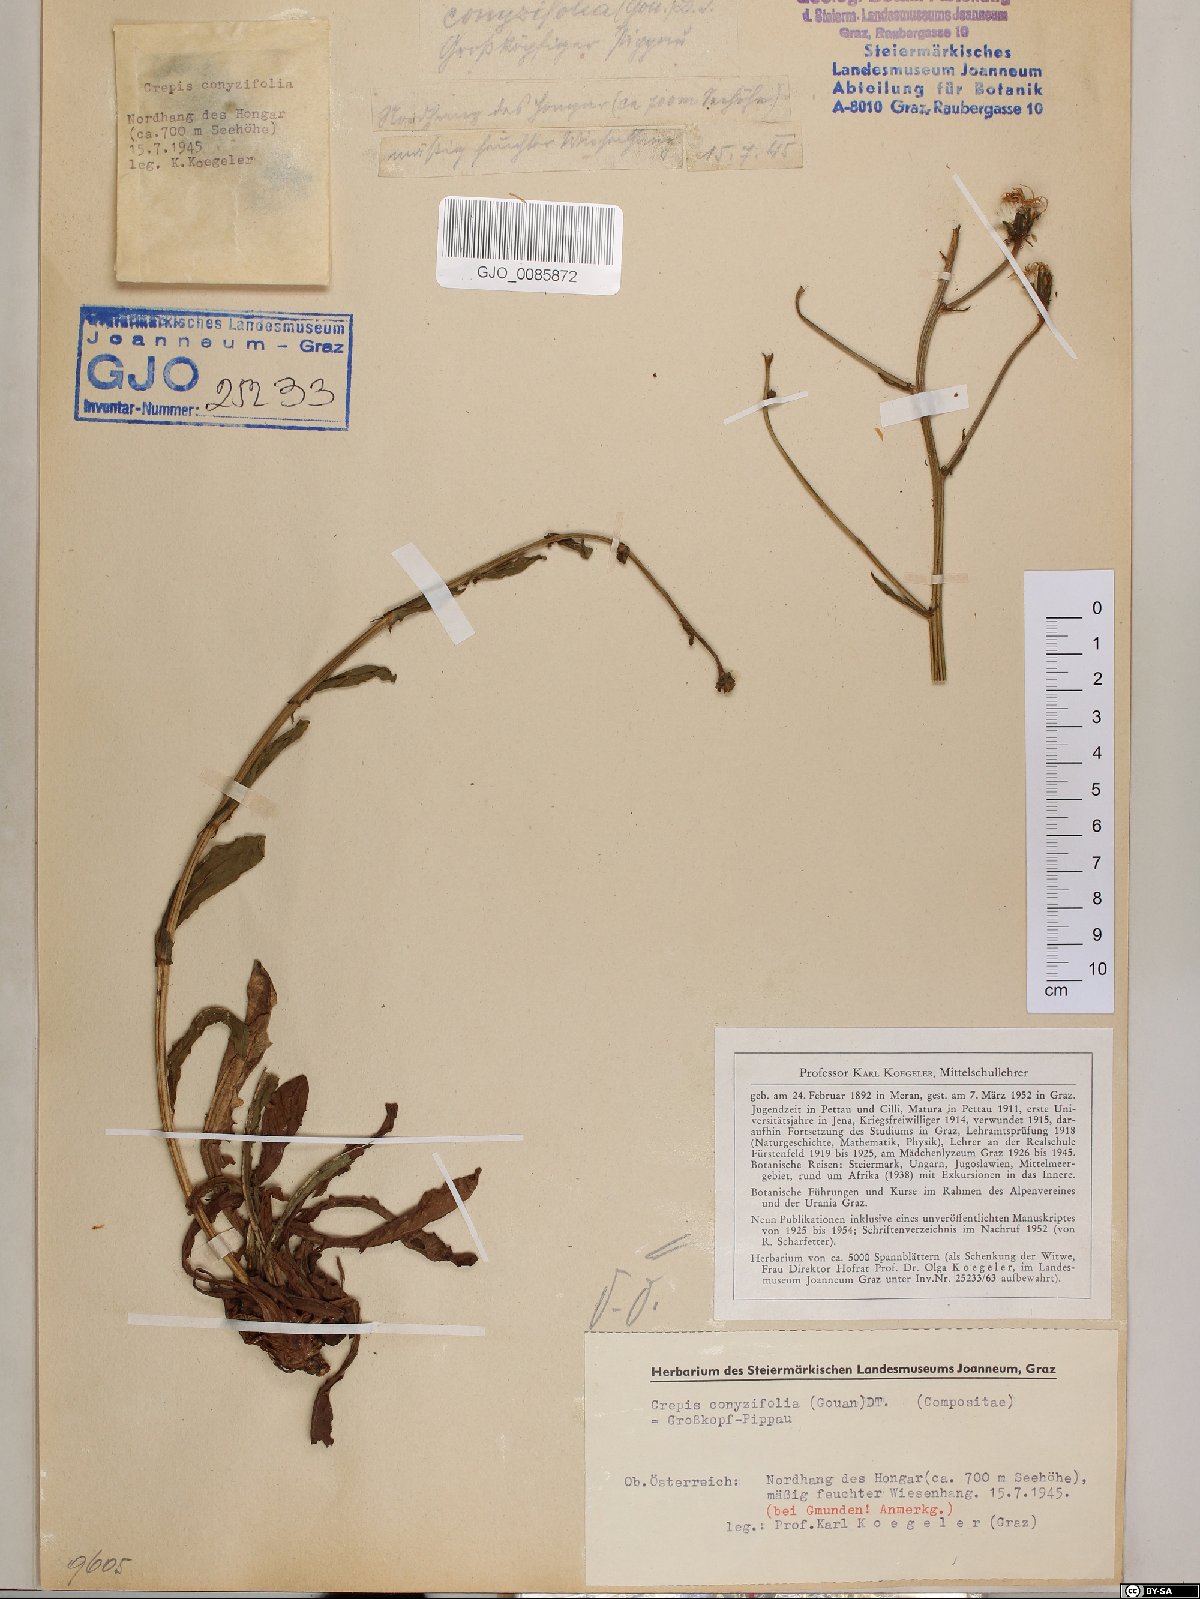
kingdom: Plantae
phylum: Tracheophyta
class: Magnoliopsida
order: Asterales
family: Asteraceae
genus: Crepis
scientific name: Crepis blattarioides
